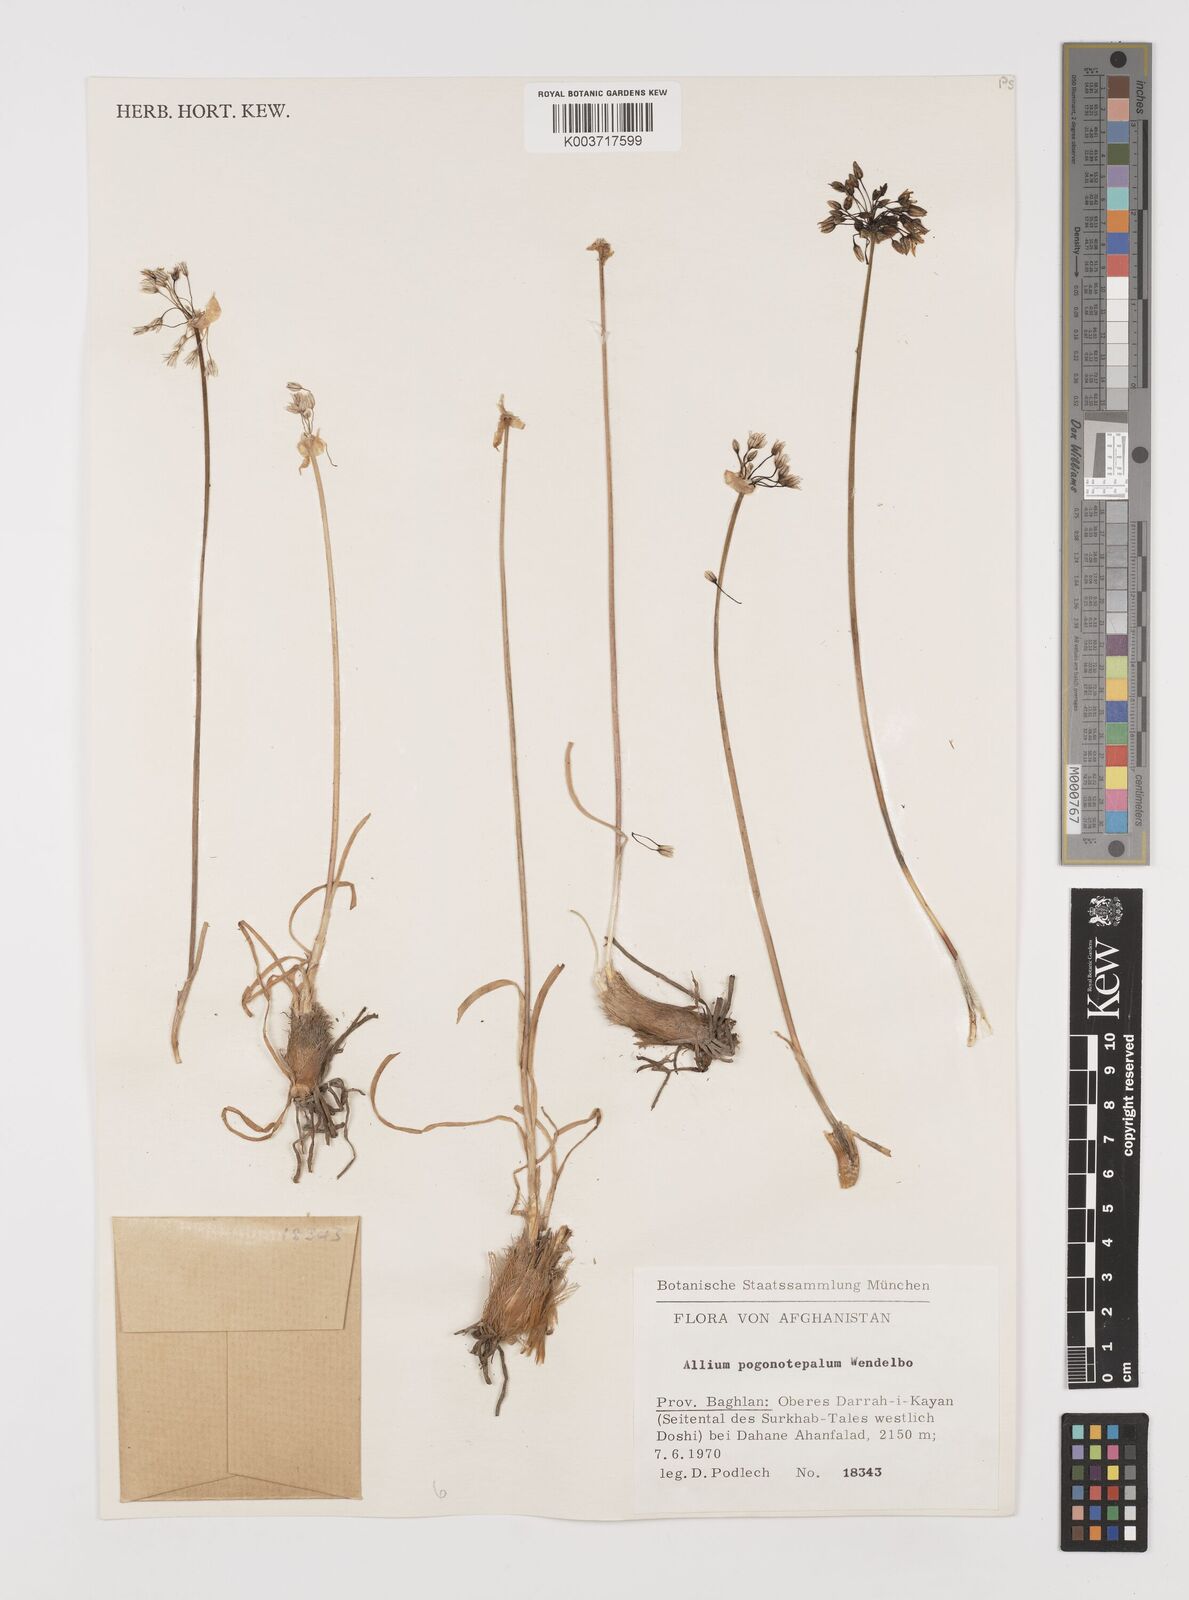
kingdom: Plantae
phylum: Tracheophyta
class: Liliopsida
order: Asparagales
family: Amaryllidaceae
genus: Allium
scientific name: Allium pogonotepalum
